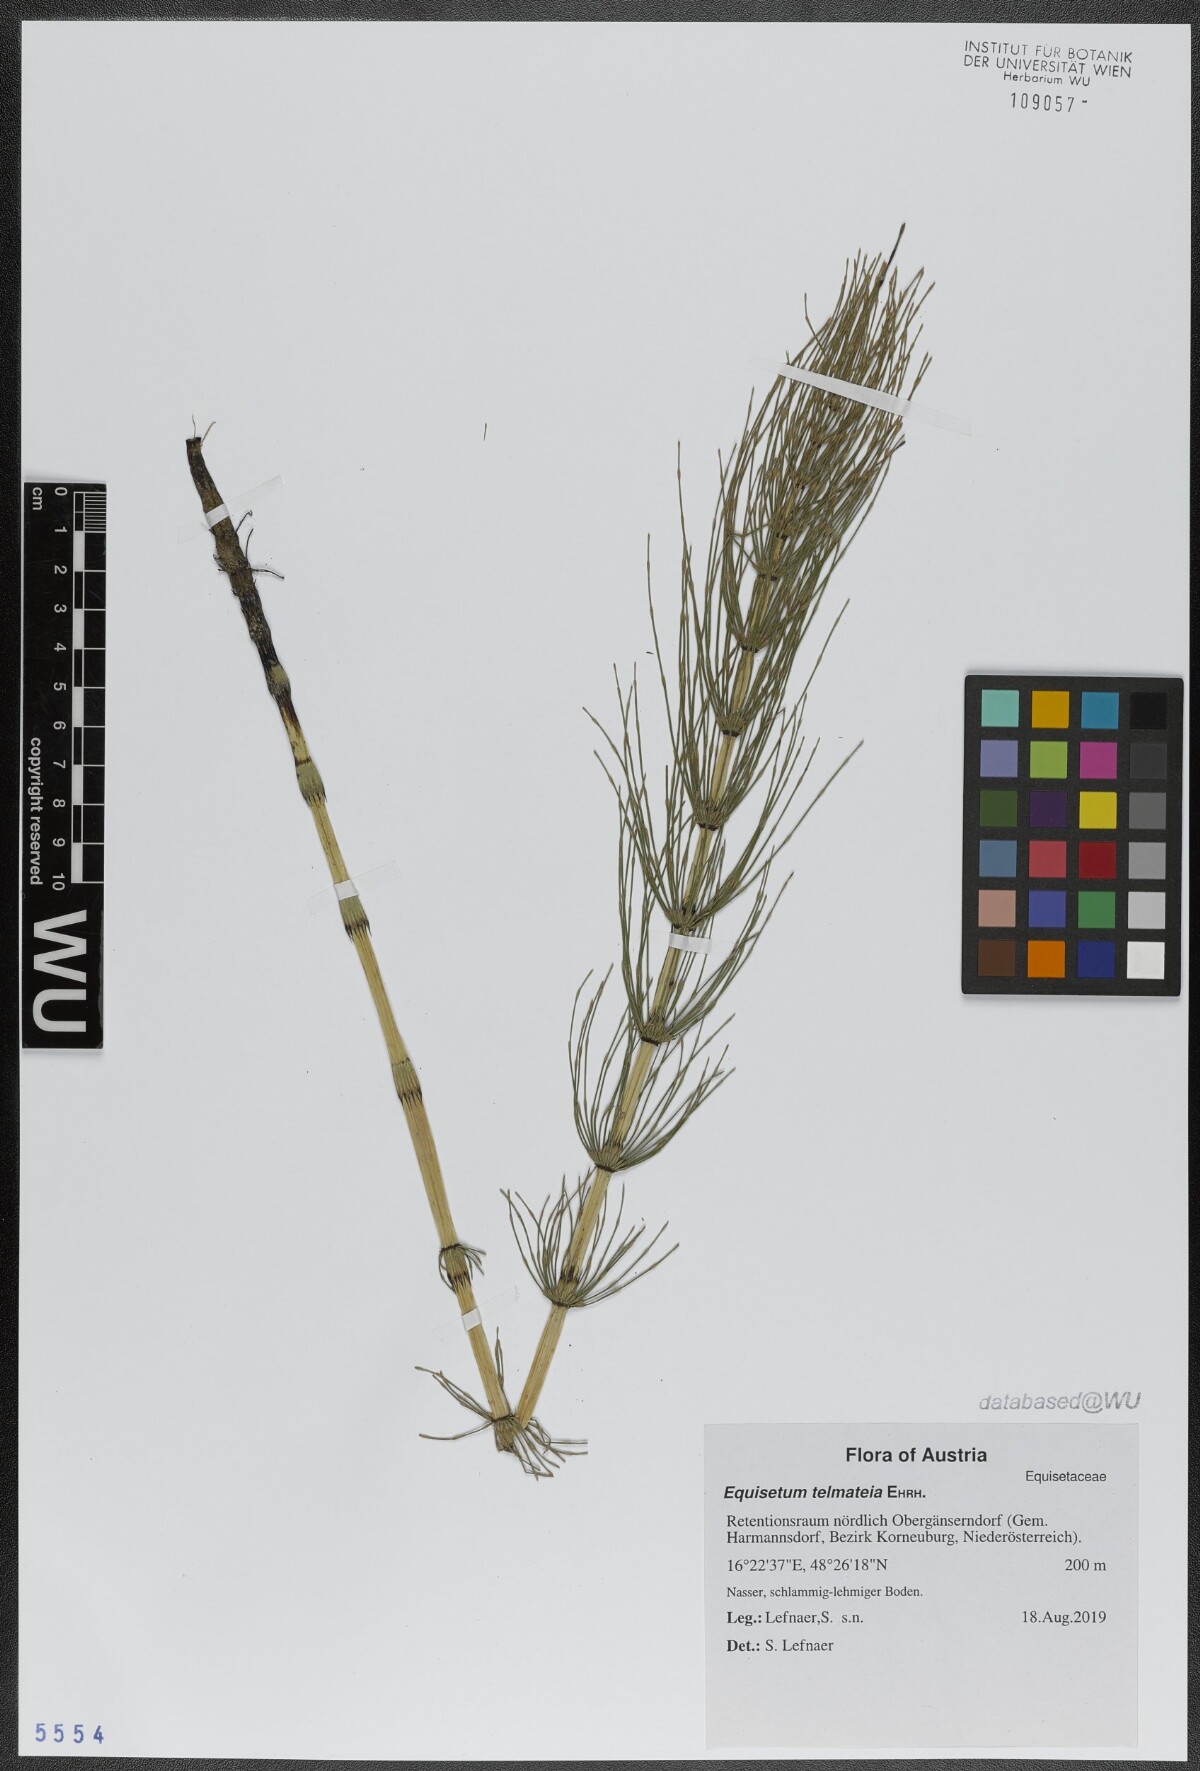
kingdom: Plantae
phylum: Tracheophyta
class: Polypodiopsida
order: Equisetales
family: Equisetaceae
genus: Equisetum
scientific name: Equisetum telmateia
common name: Great horsetail
